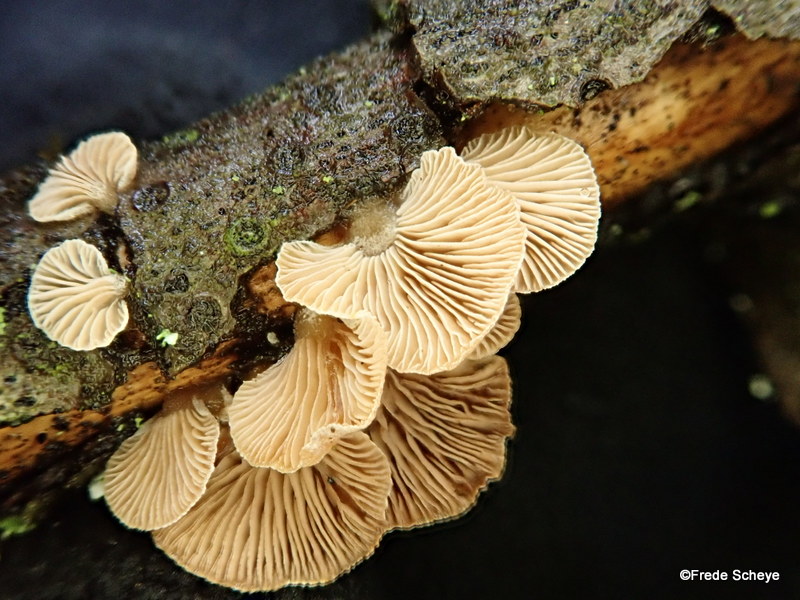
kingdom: Fungi
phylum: Basidiomycota
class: Agaricomycetes
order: Agaricales
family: Mycenaceae
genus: Panellus
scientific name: Panellus mitis
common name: mild epaulethat
